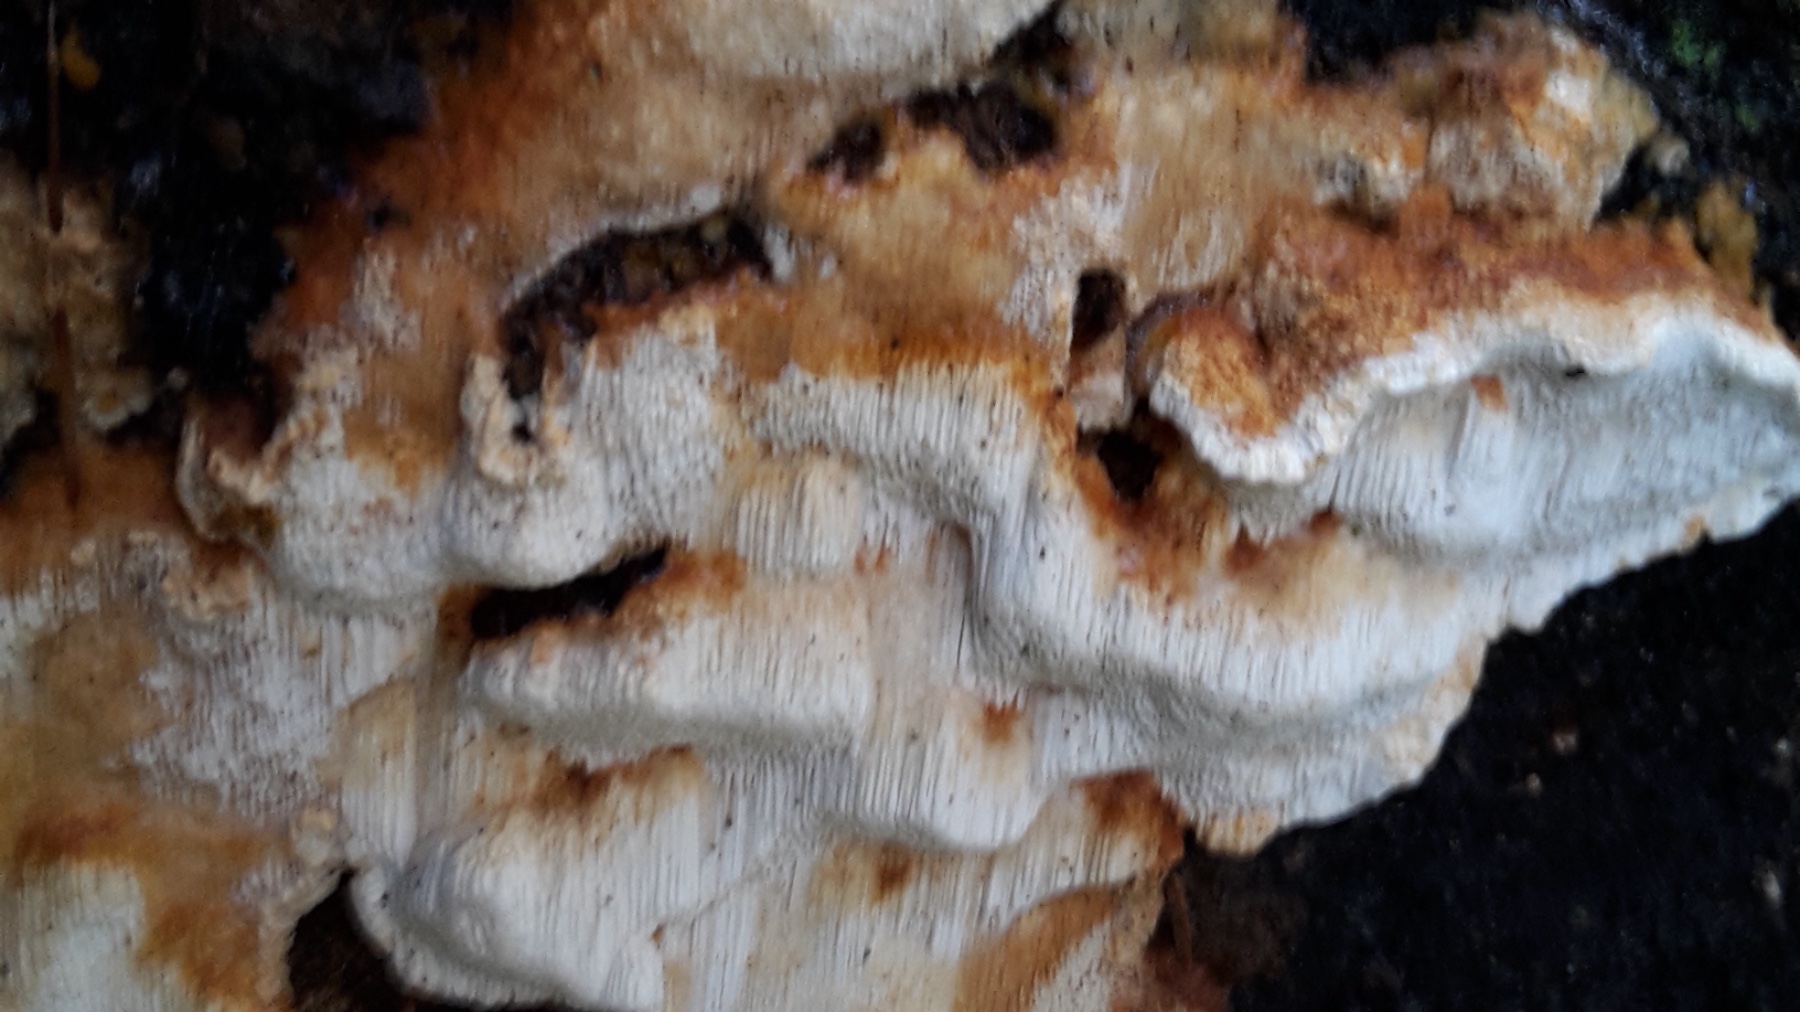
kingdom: Fungi
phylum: Basidiomycota
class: Agaricomycetes
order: Polyporales
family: Fomitopsidaceae
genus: Neoantrodia
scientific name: Neoantrodia serialis
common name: række-sejporesvamp
